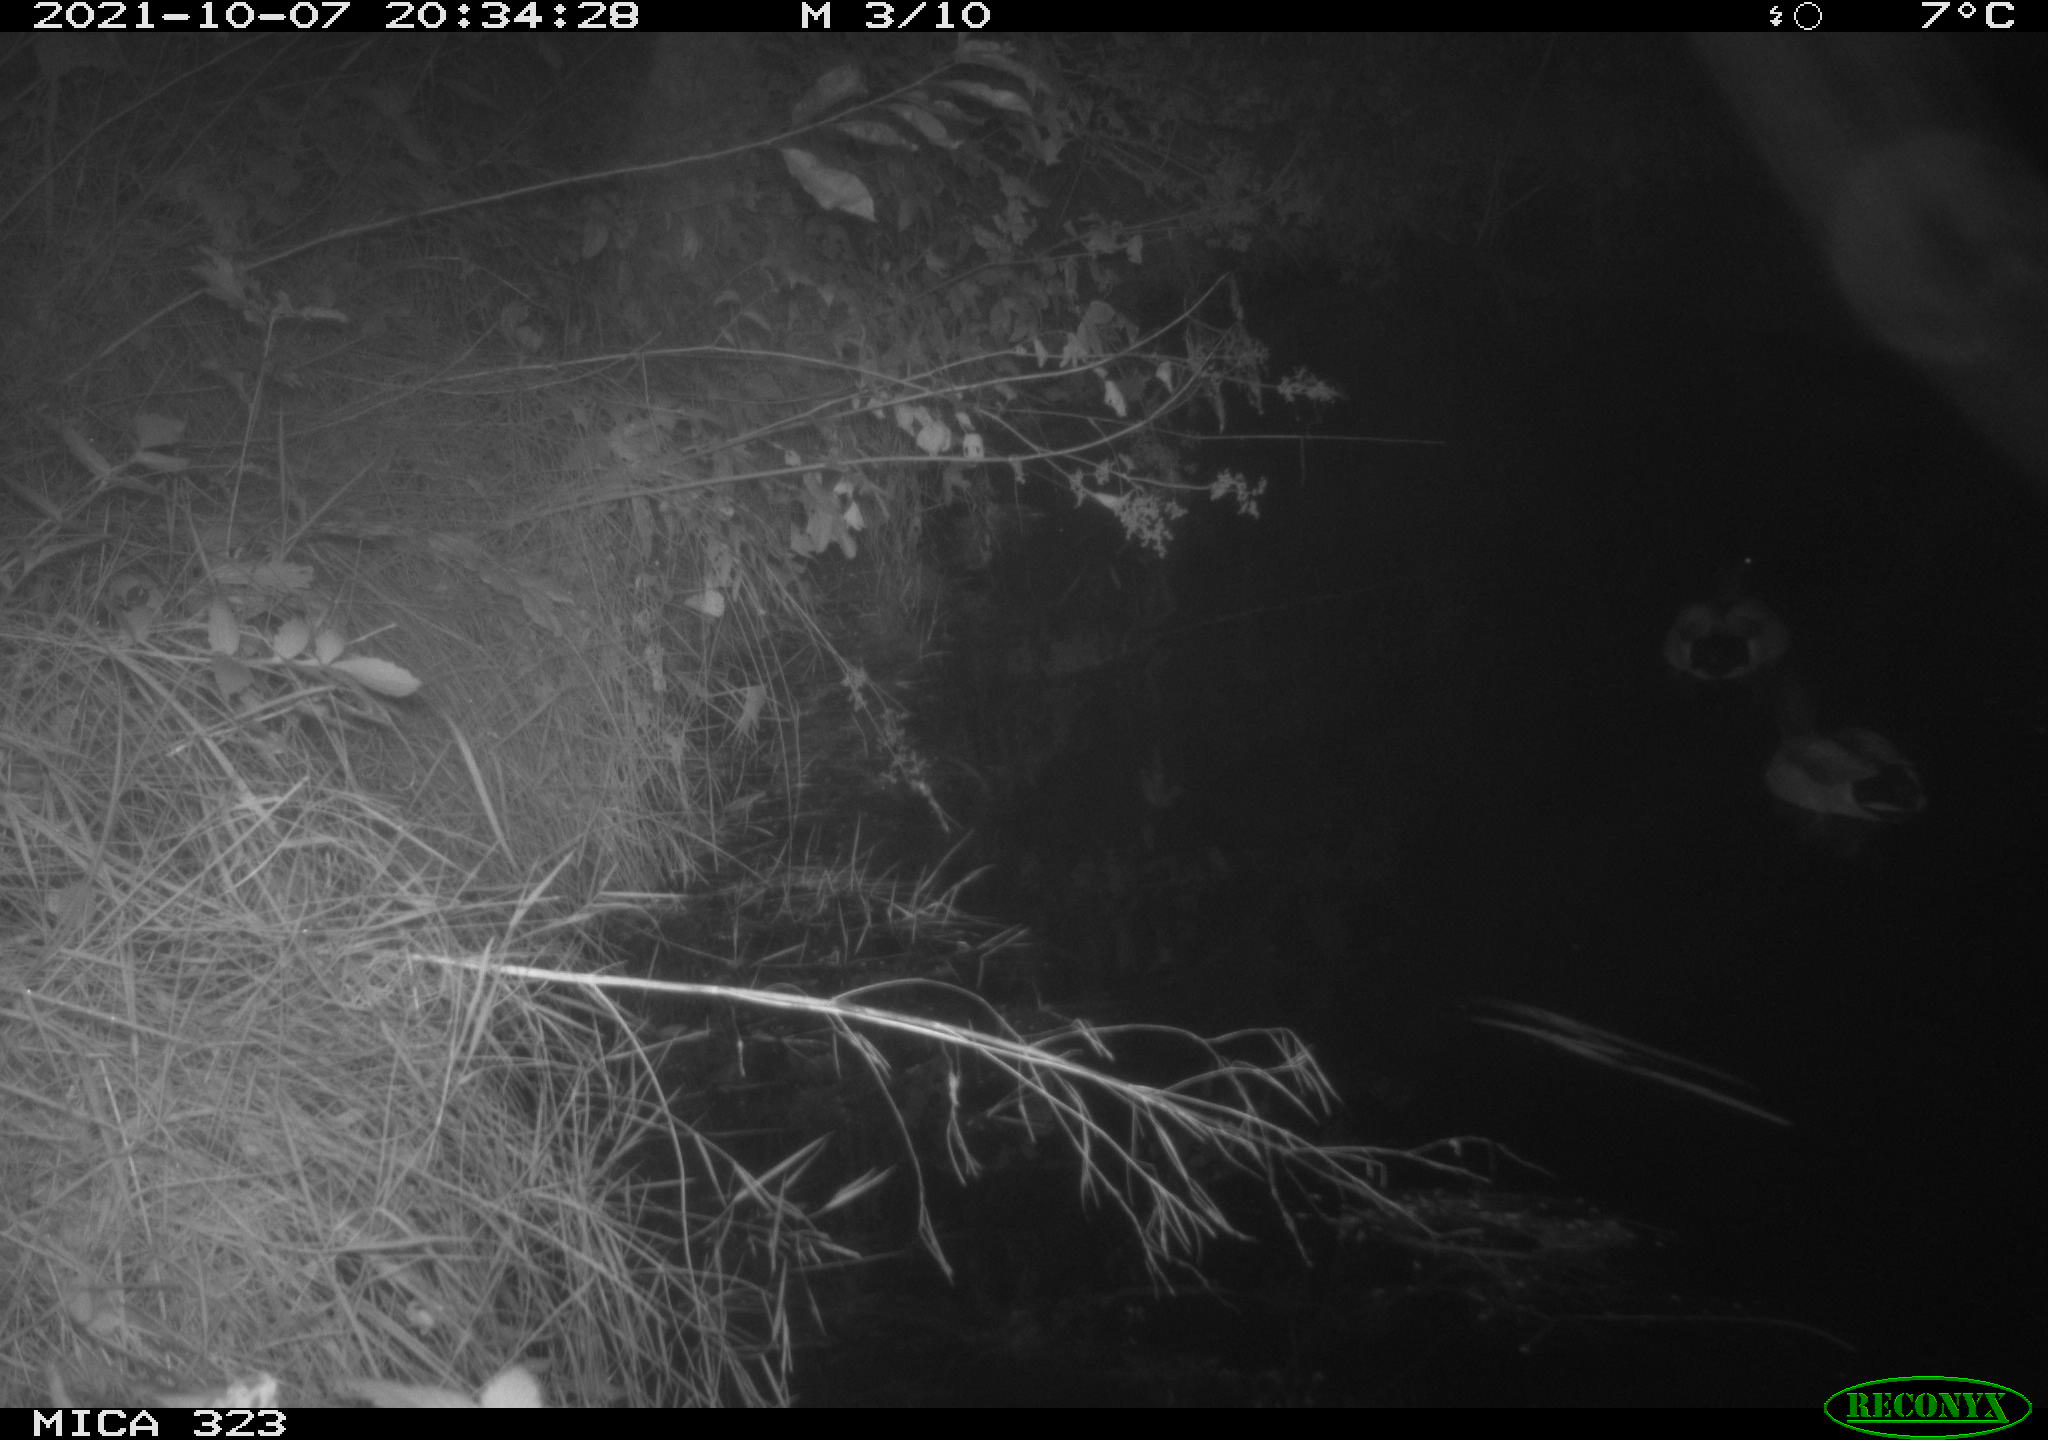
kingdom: Animalia
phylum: Chordata
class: Aves
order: Anseriformes
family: Anatidae
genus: Anas
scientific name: Anas
